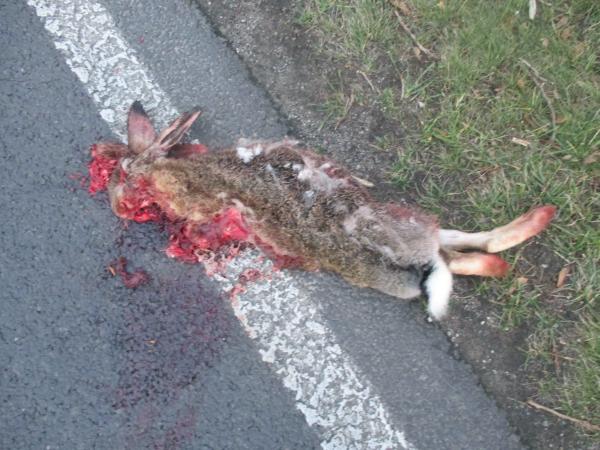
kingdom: Animalia
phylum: Chordata
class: Mammalia
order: Lagomorpha
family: Leporidae
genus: Lepus
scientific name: Lepus europaeus
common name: European hare
